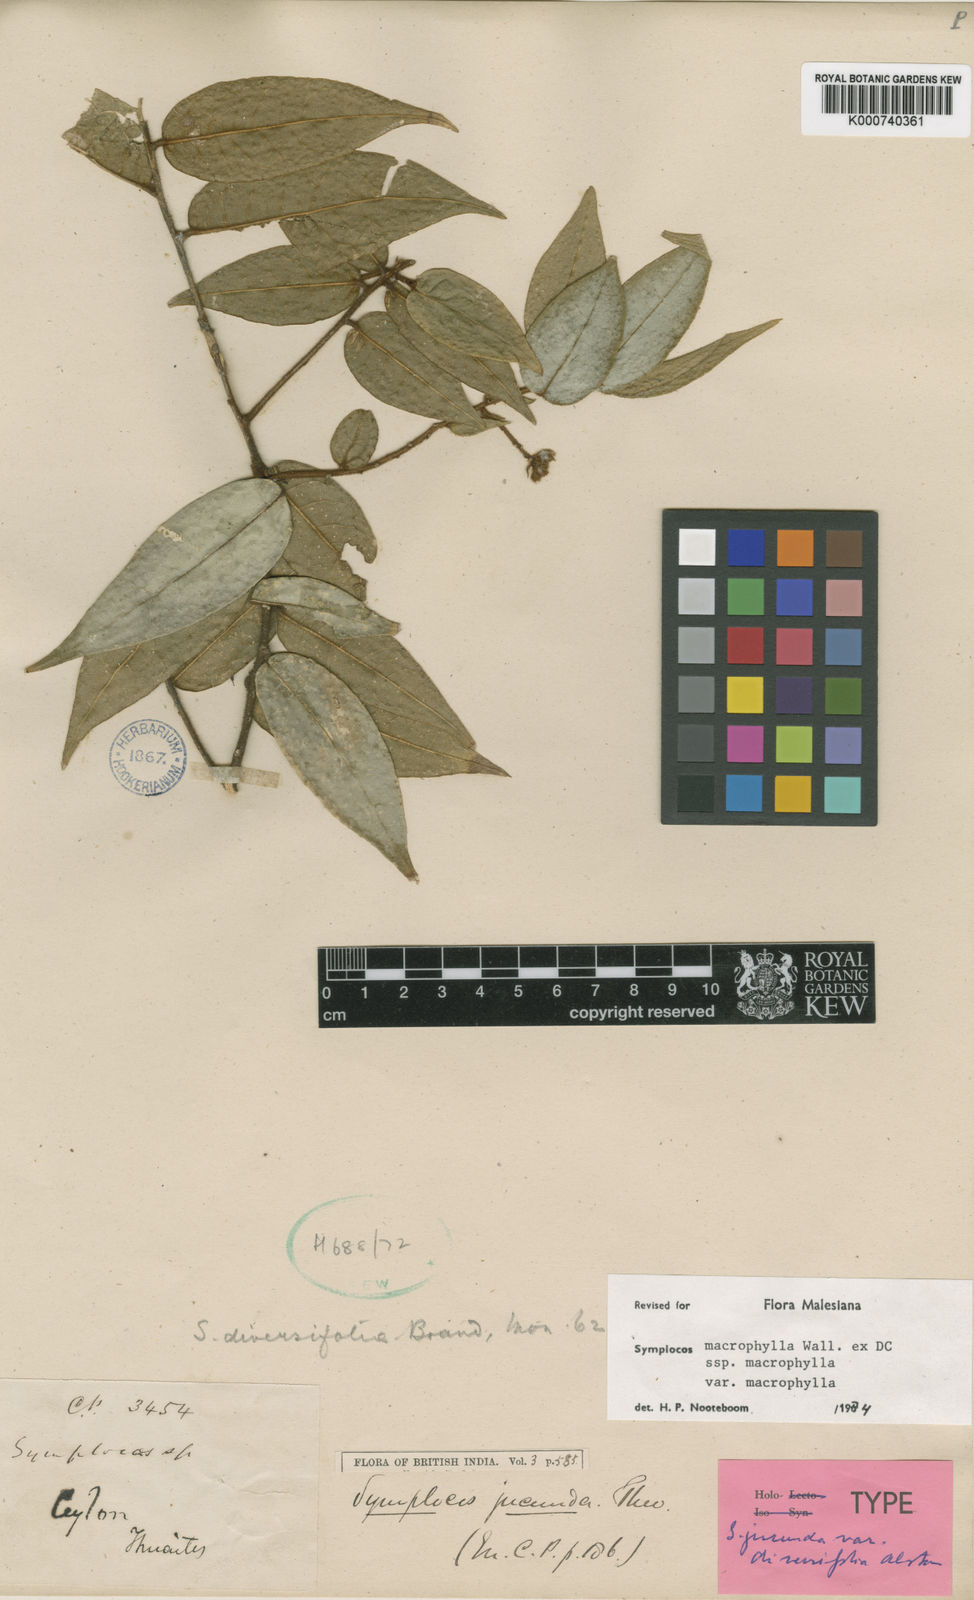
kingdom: Plantae
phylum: Tracheophyta
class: Magnoliopsida
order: Ericales
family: Symplocaceae
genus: Symplocos
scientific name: Symplocos
